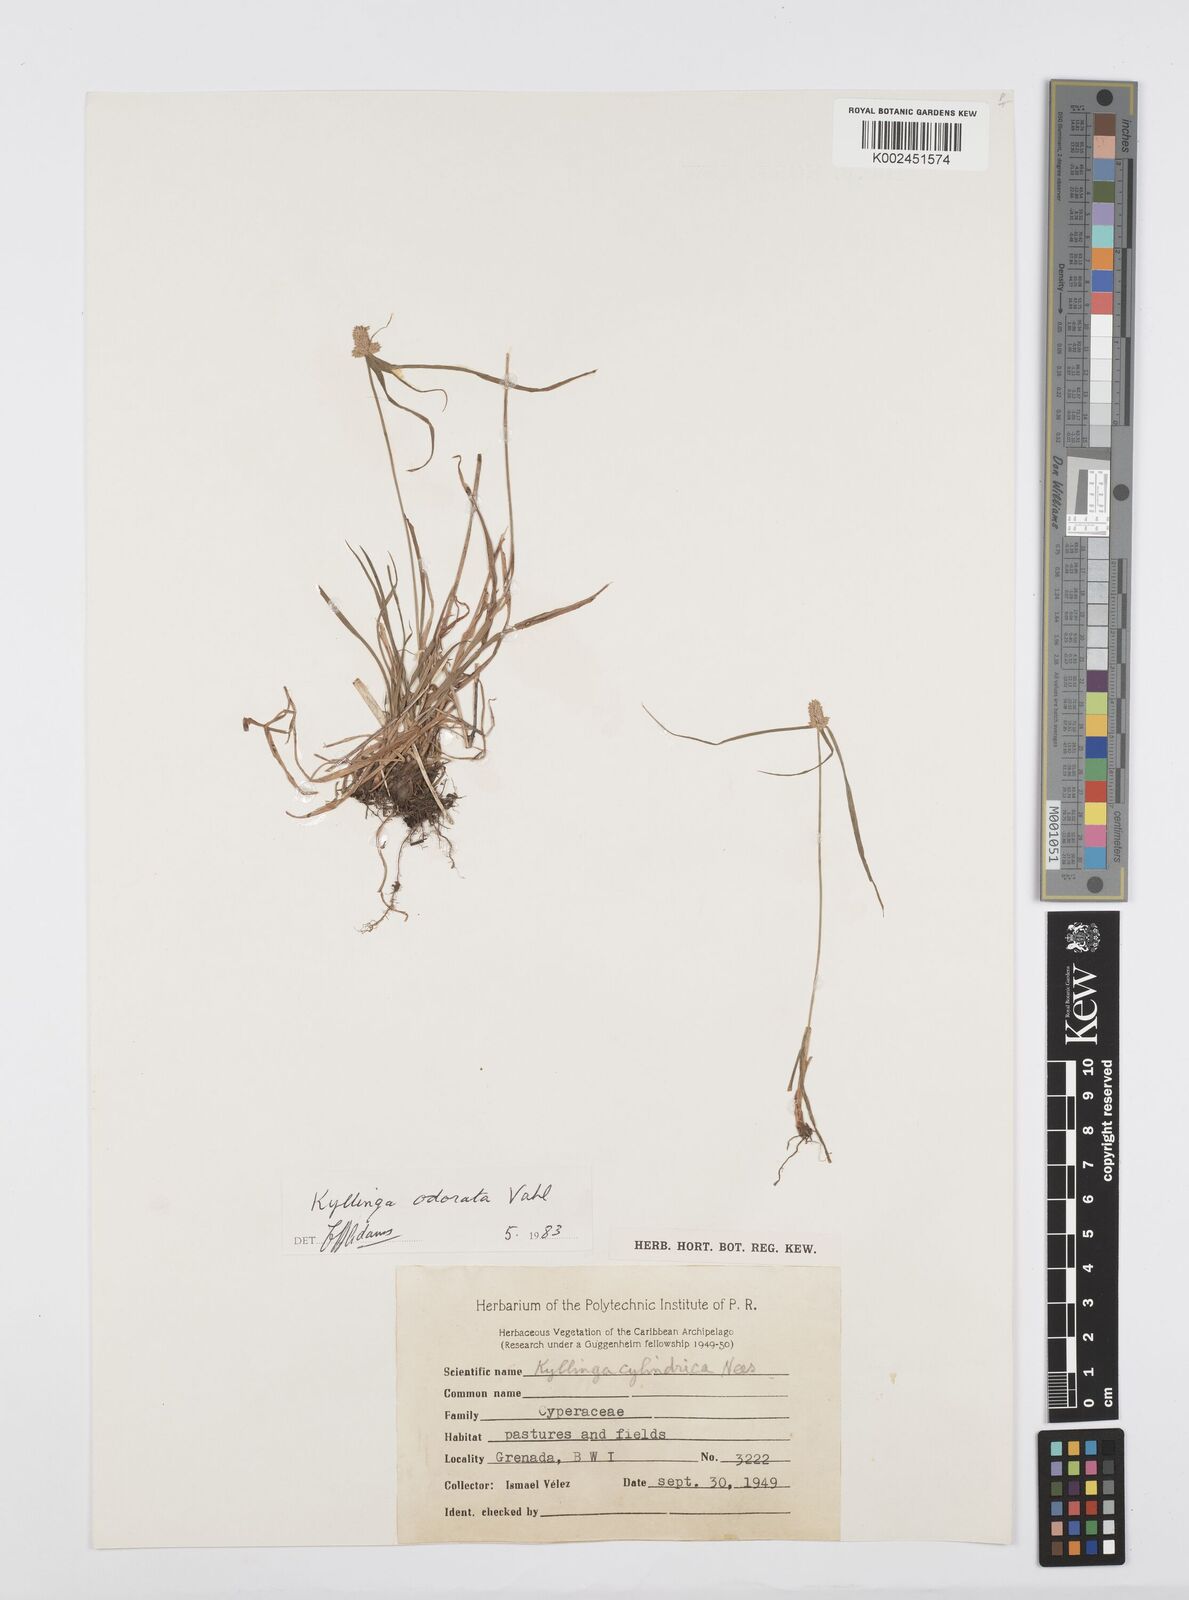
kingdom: Plantae
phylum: Tracheophyta
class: Liliopsida
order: Poales
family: Cyperaceae
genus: Cyperus
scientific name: Cyperus
